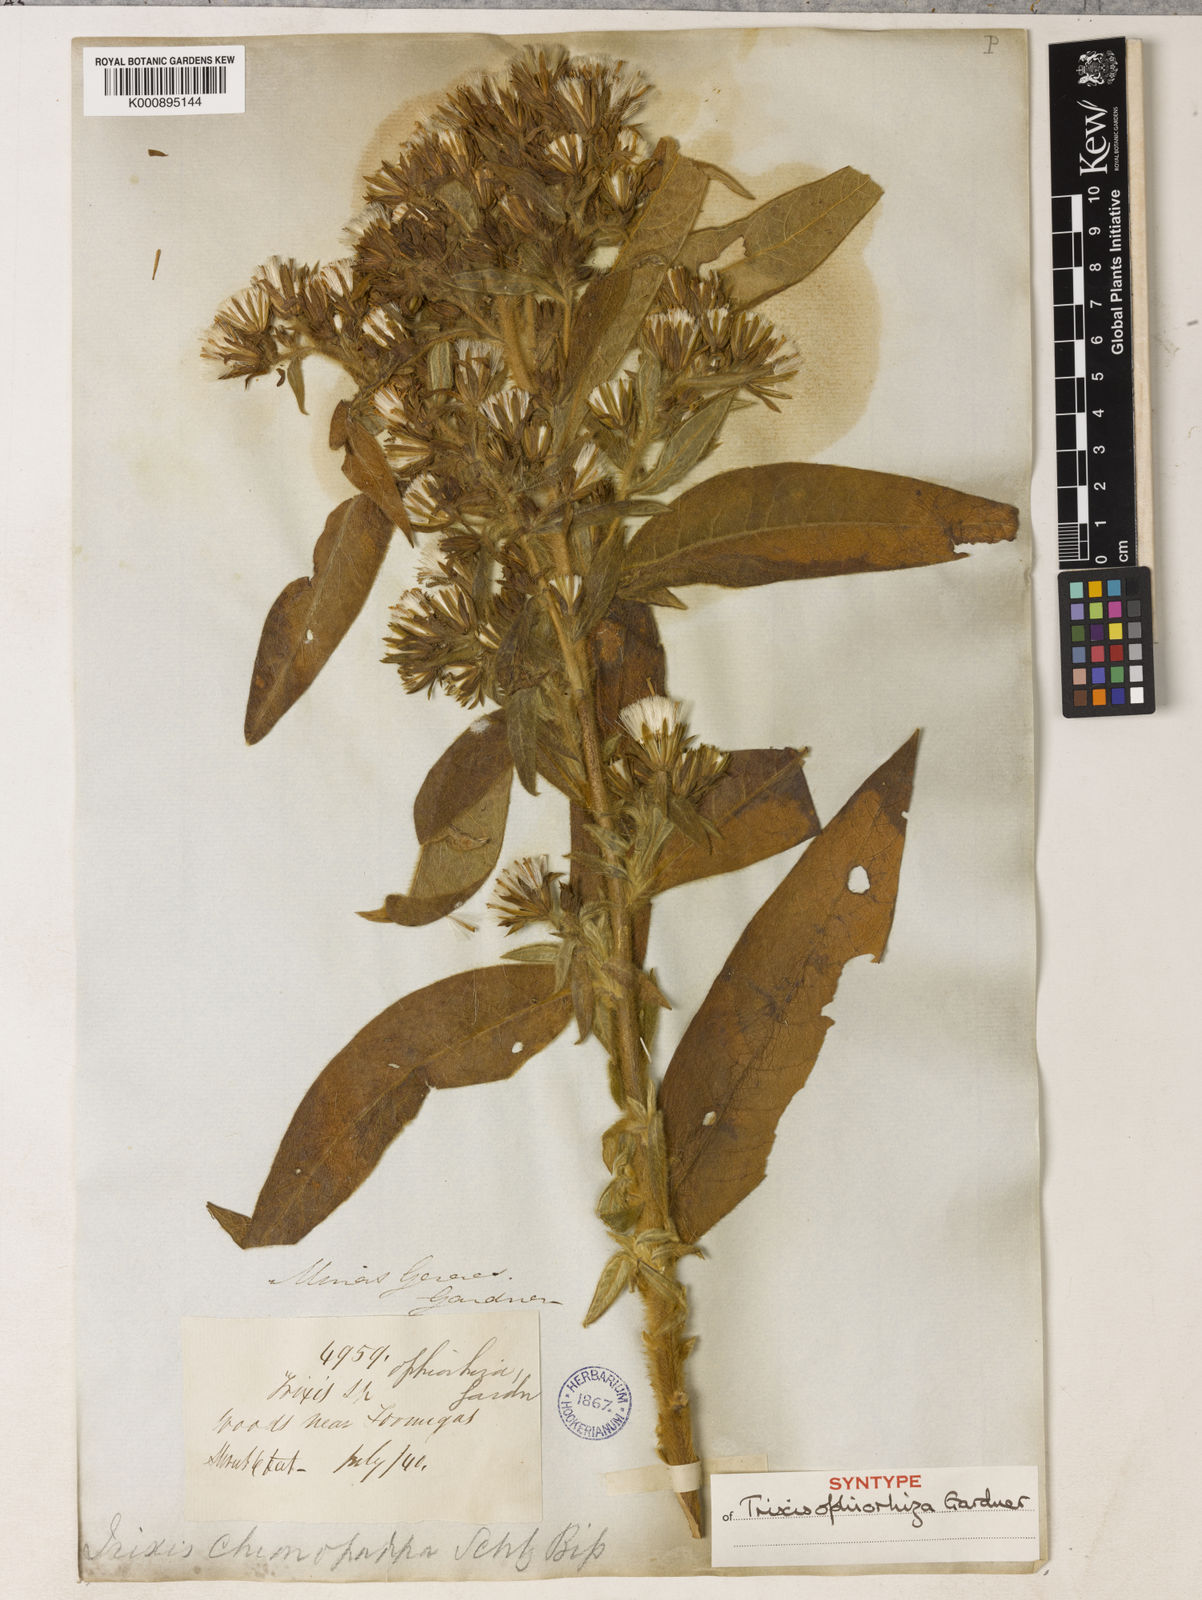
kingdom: Plantae
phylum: Tracheophyta
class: Magnoliopsida
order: Asterales
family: Asteraceae
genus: Trixis
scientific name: Trixis ophiorhiza
